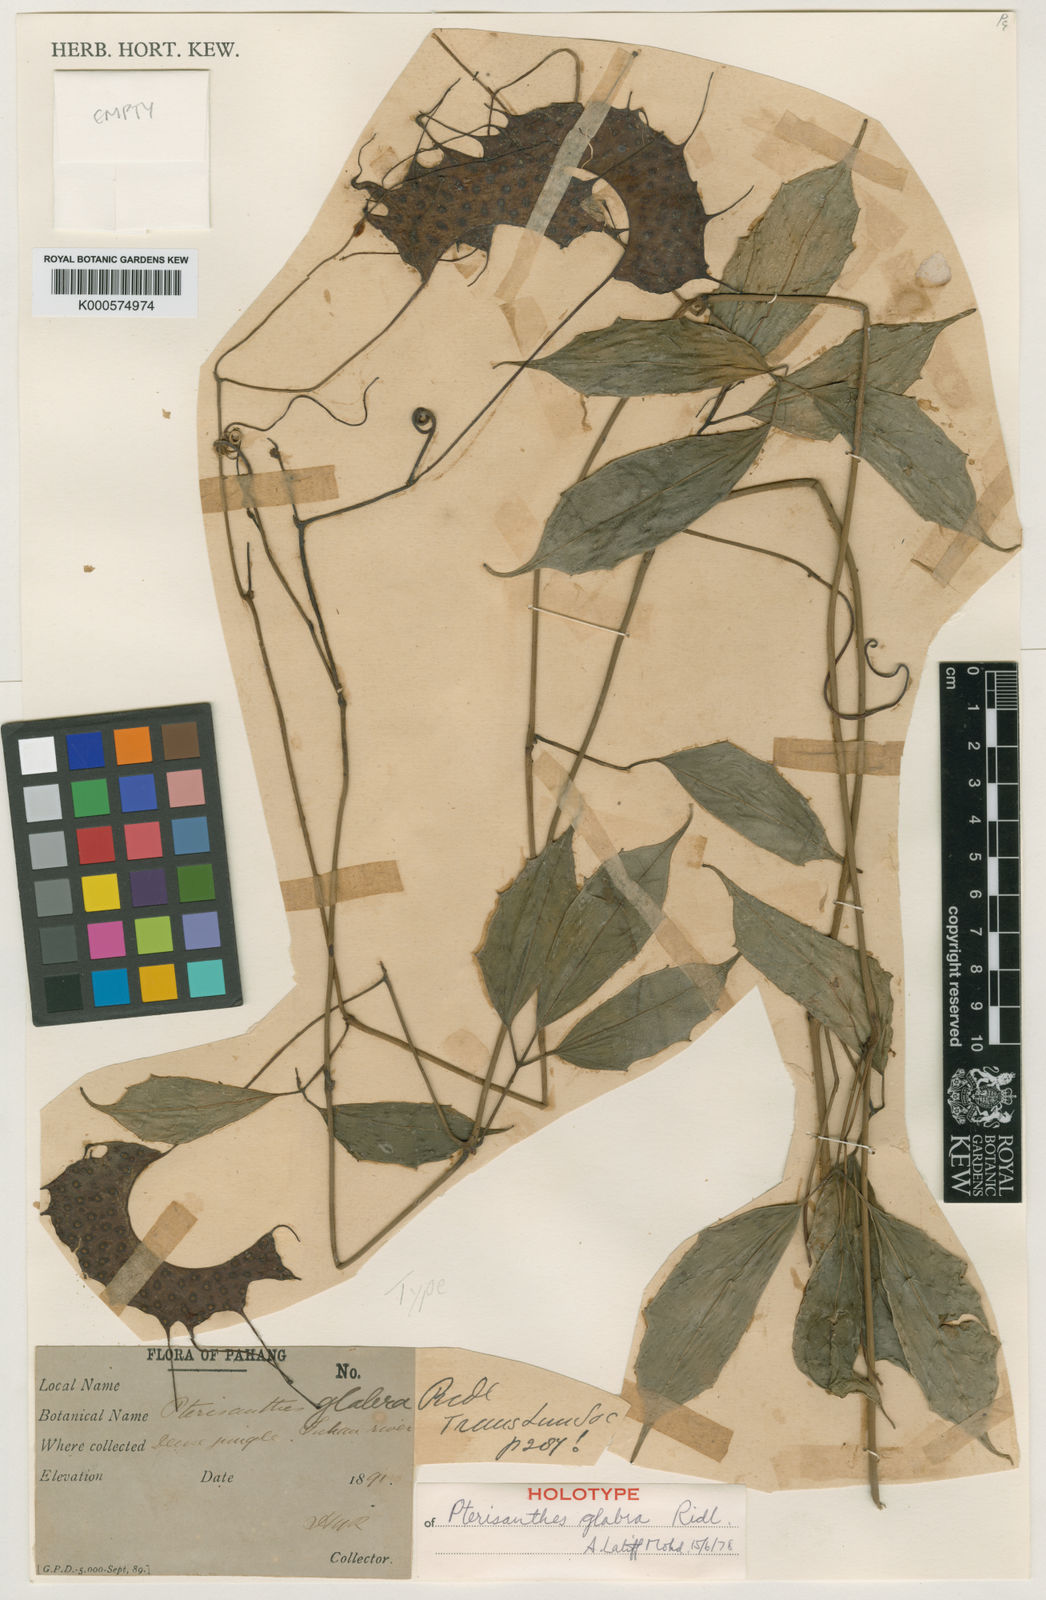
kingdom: Plantae
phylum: Tracheophyta
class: Magnoliopsida
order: Vitales
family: Vitaceae
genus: Pterisanthes
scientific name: Pterisanthes glabra
